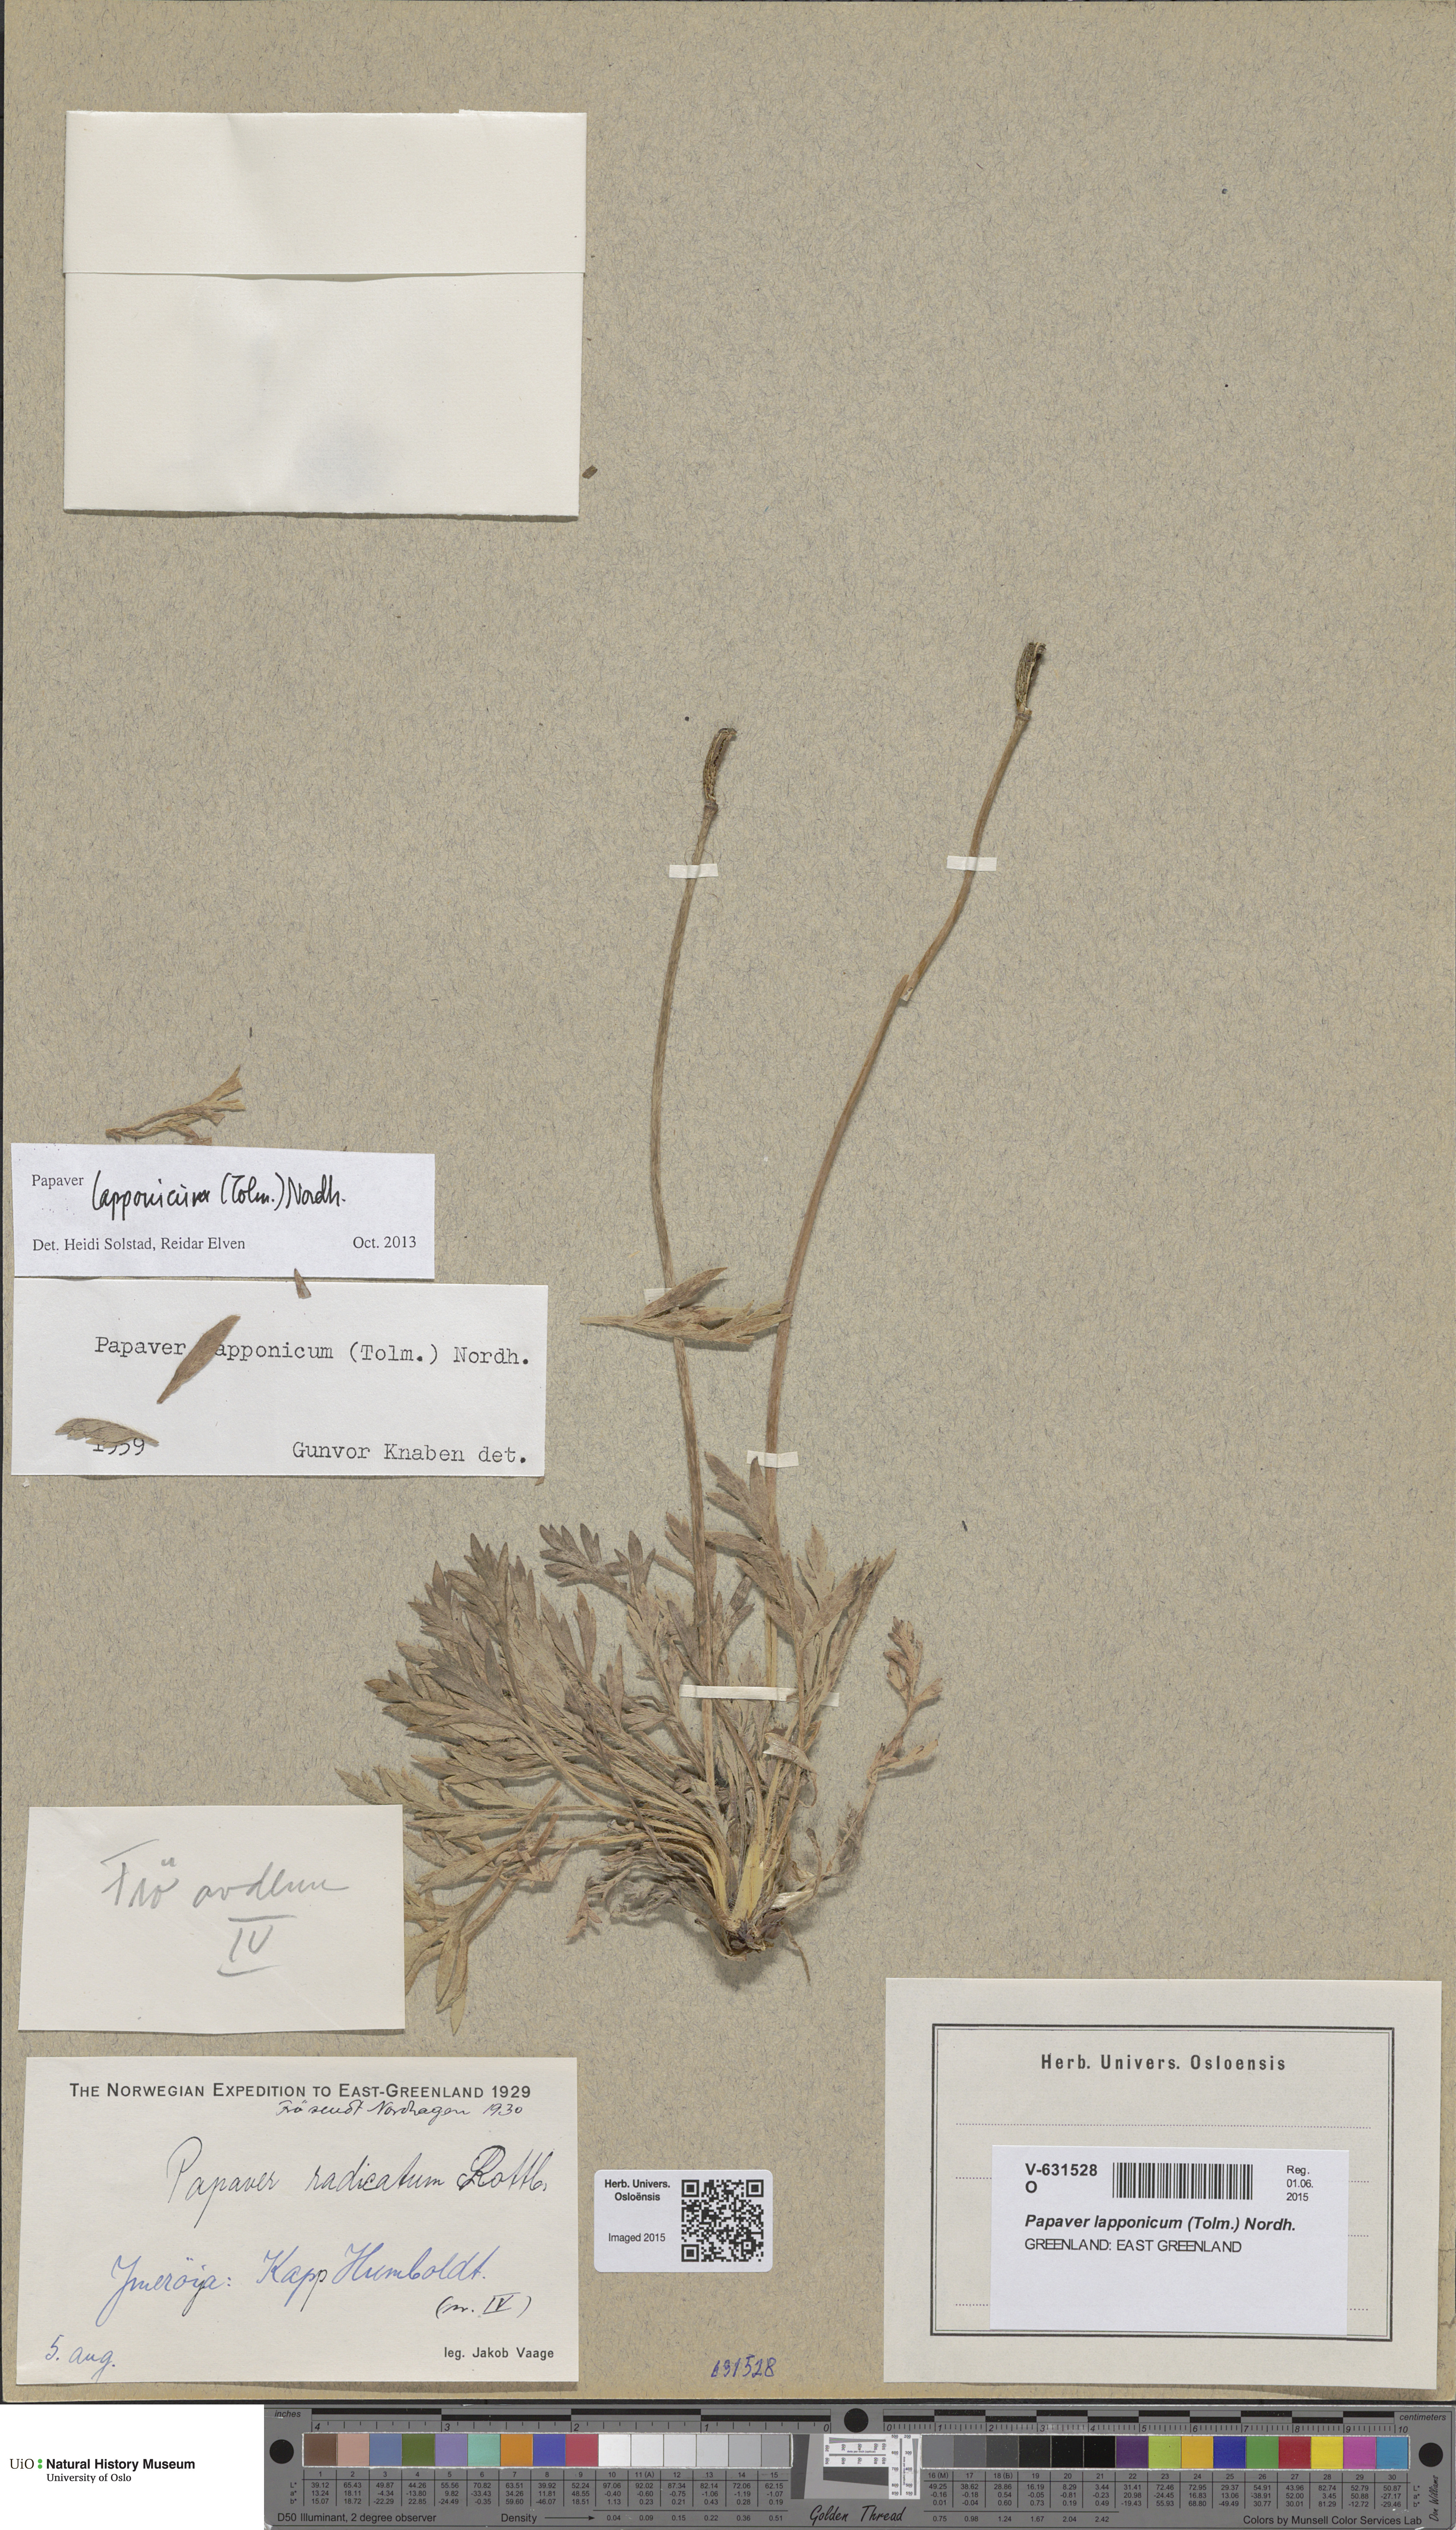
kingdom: Plantae
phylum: Tracheophyta
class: Magnoliopsida
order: Ranunculales
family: Papaveraceae
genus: Papaver
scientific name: Papaver lapponicum
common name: Lapland poppy
